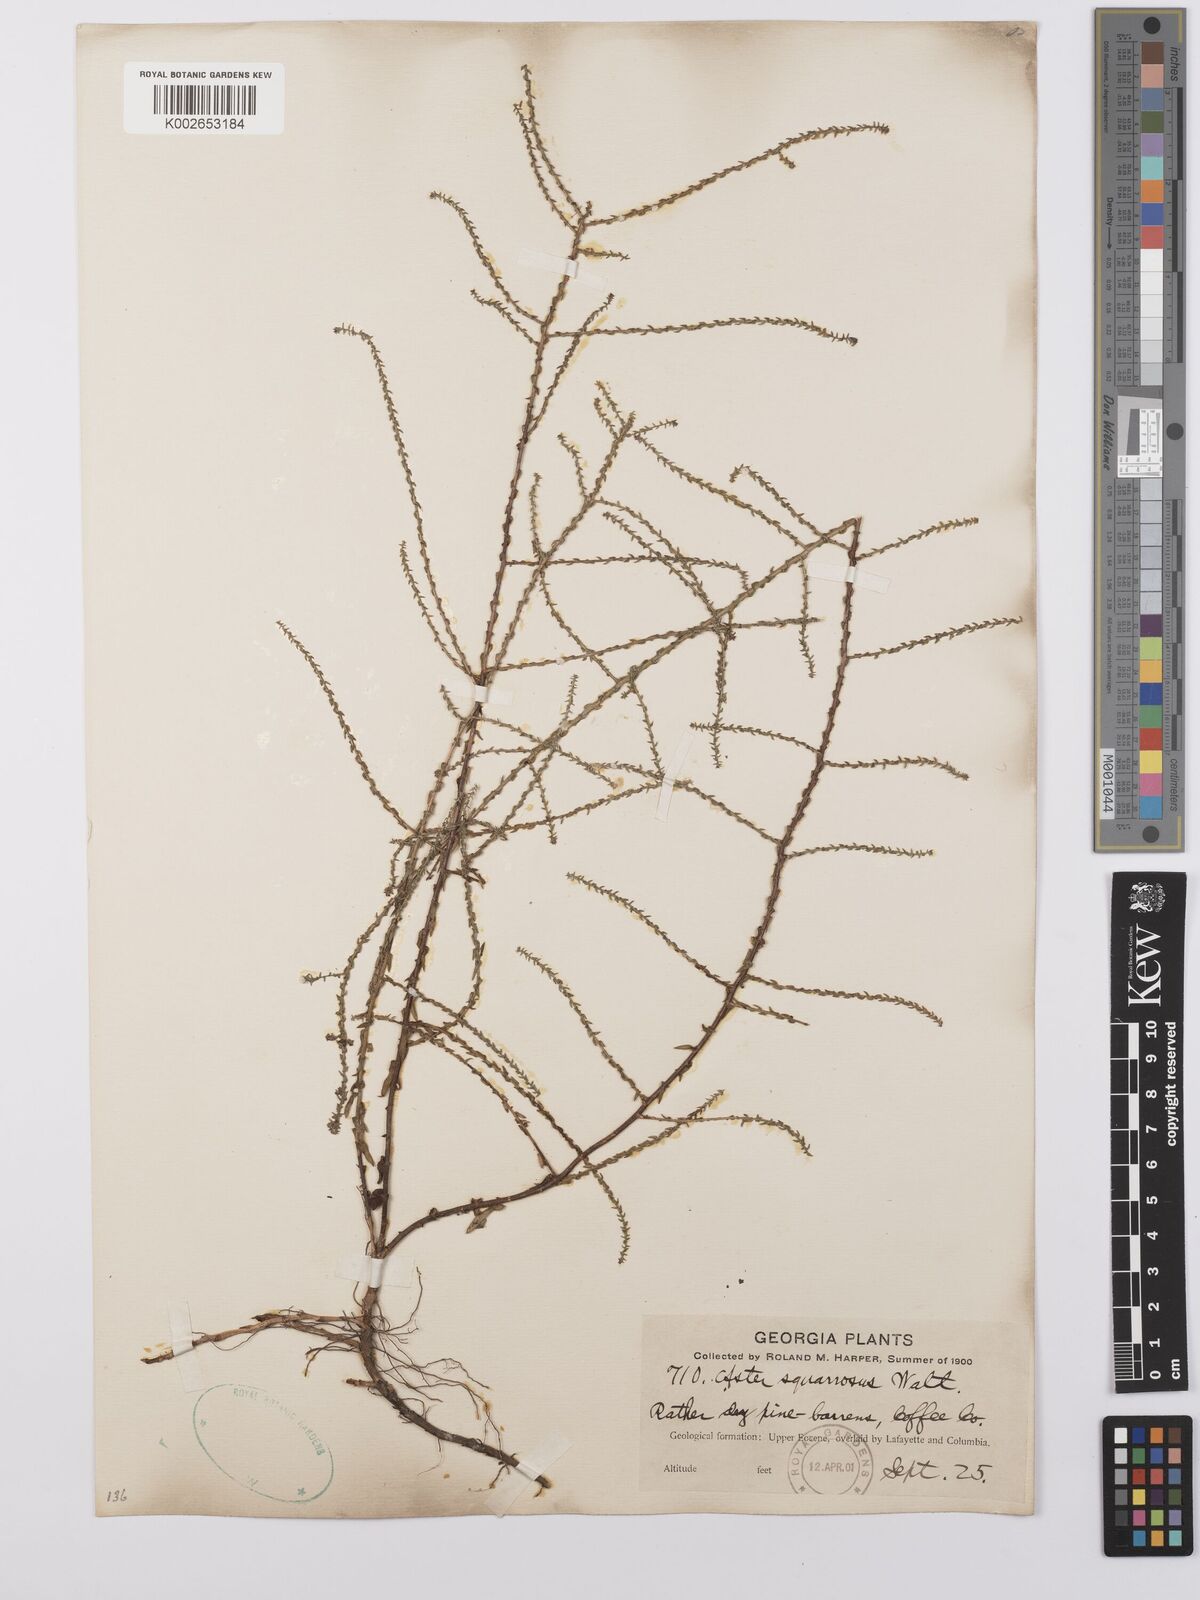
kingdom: Plantae
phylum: Tracheophyta
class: Magnoliopsida
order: Asterales
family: Asteraceae
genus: Aster
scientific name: Aster
